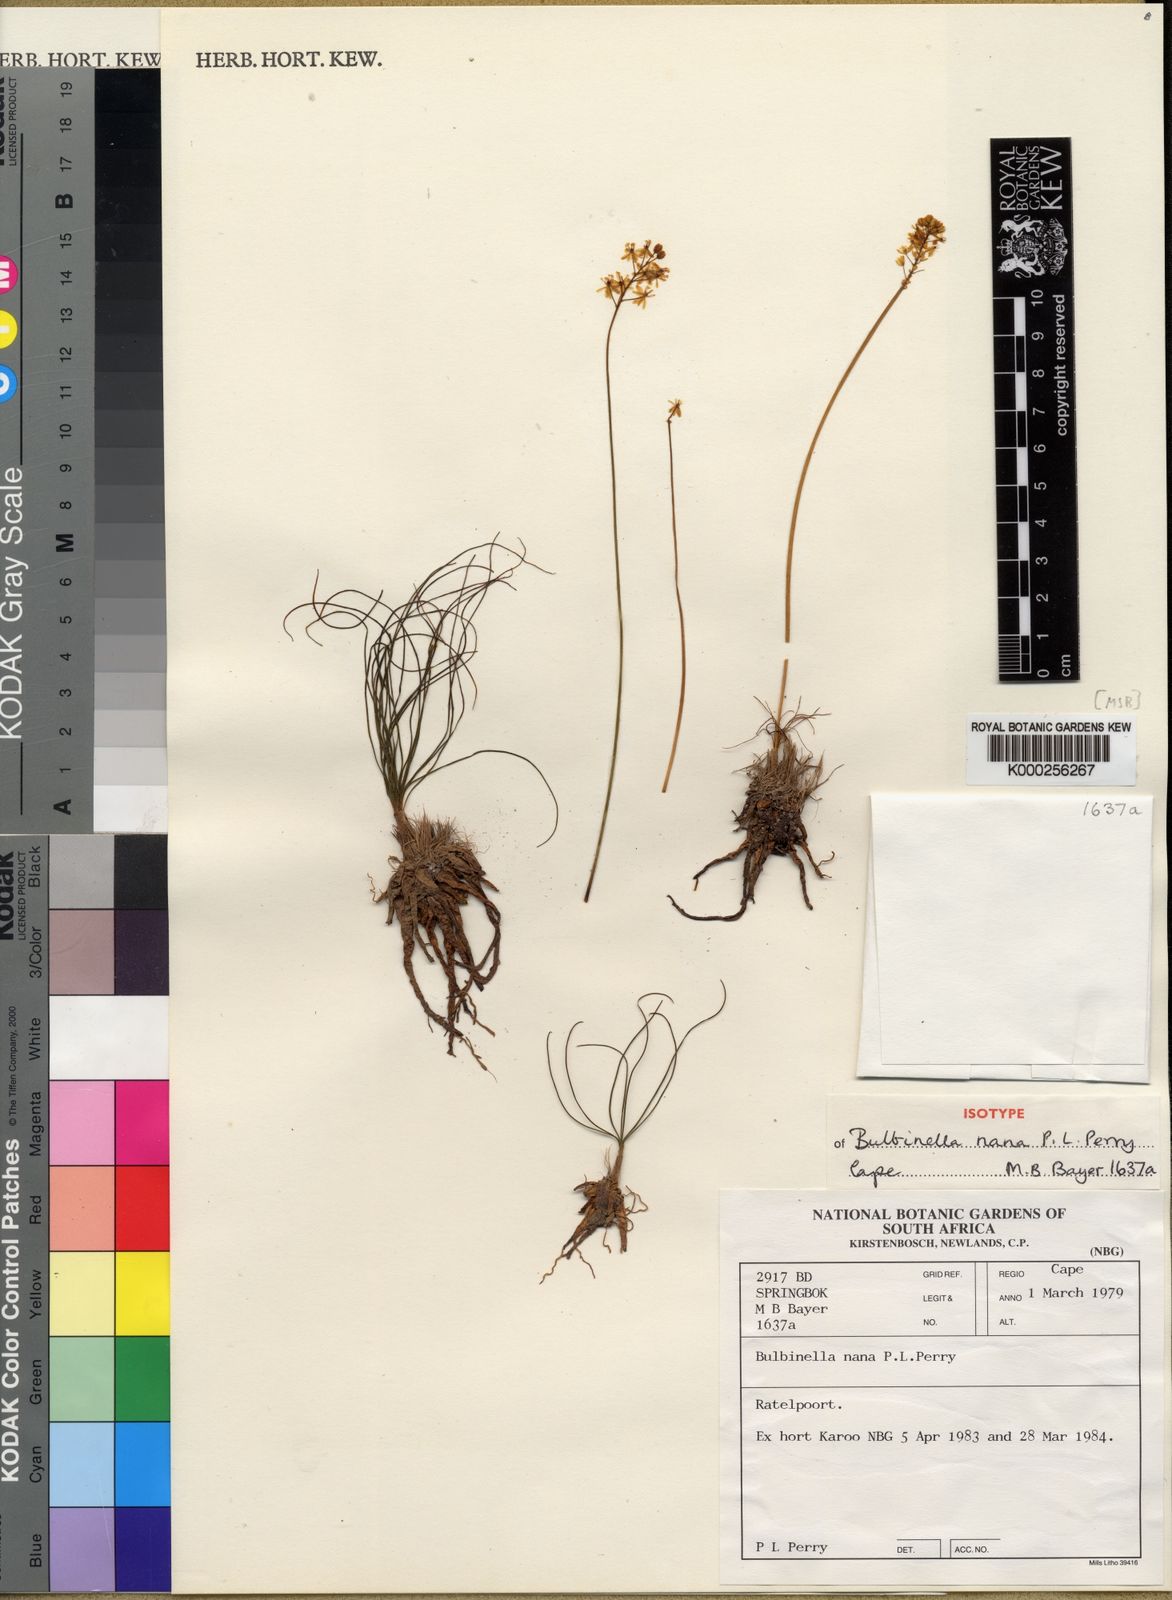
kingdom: Plantae
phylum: Tracheophyta
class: Liliopsida
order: Asparagales
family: Asphodelaceae
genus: Bulbinella
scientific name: Bulbinella nana
